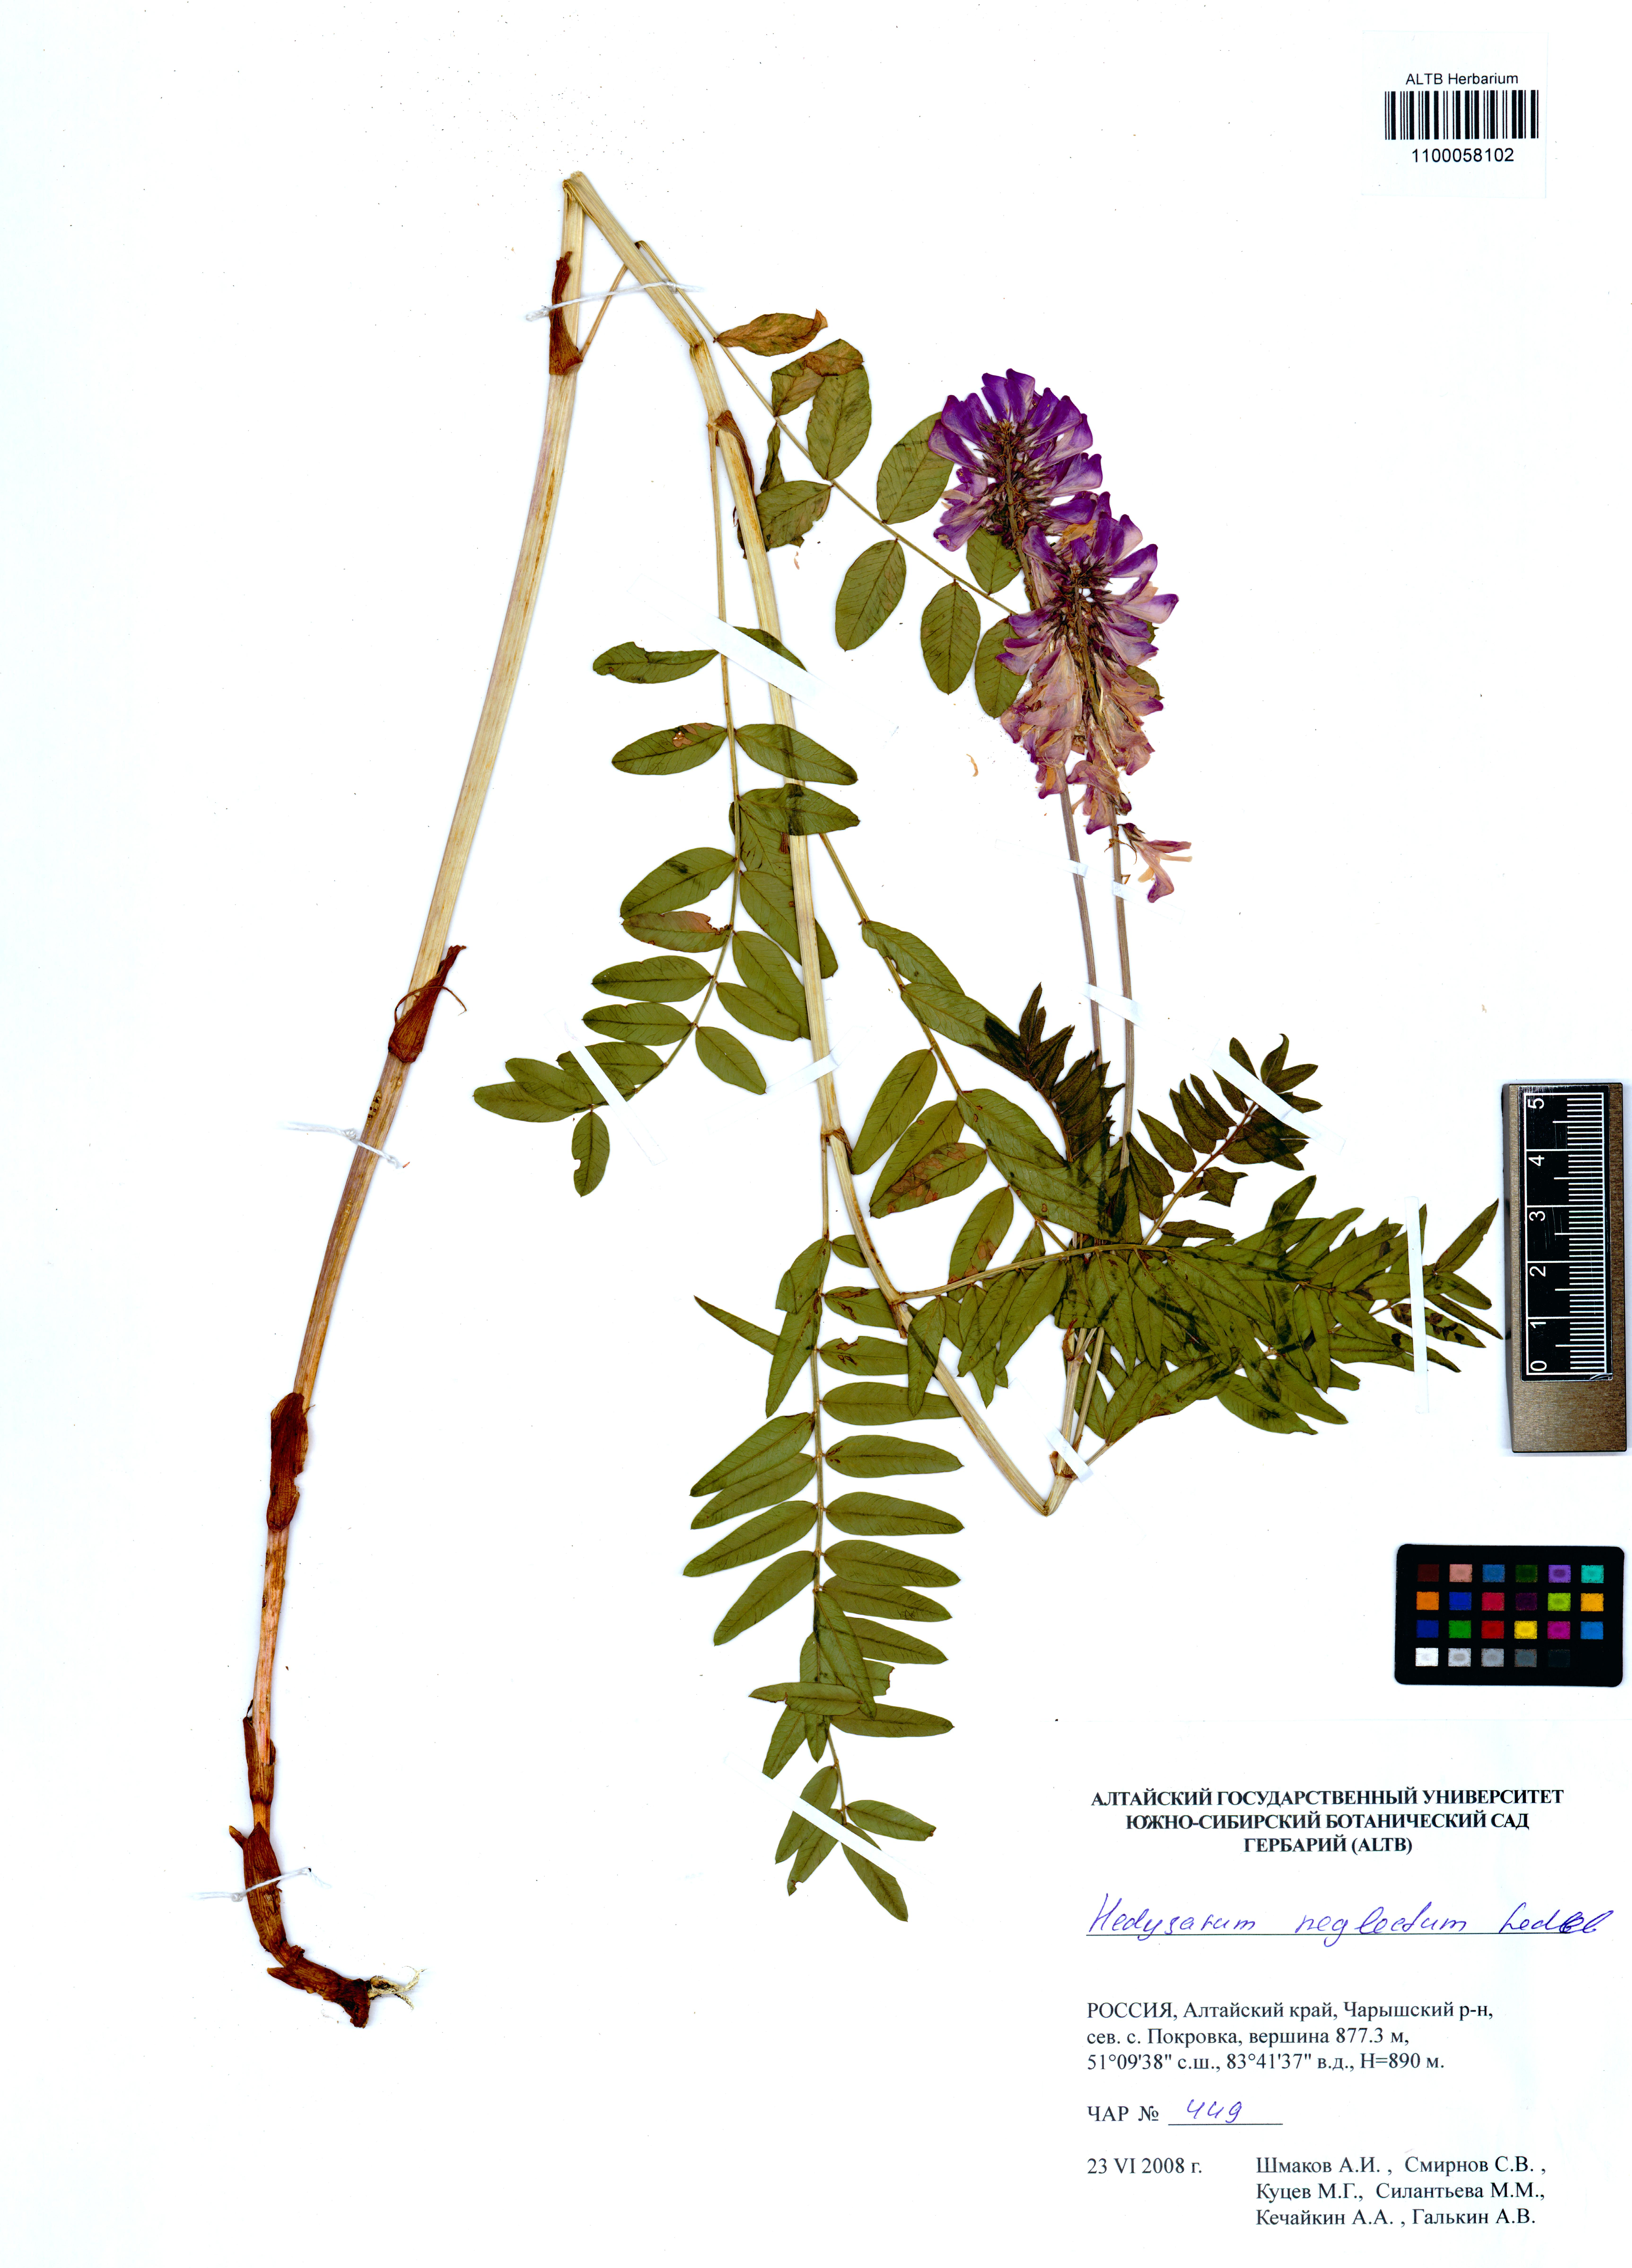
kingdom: Plantae
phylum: Tracheophyta
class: Magnoliopsida
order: Fabales
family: Fabaceae
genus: Hedysarum
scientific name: Hedysarum neglectum
